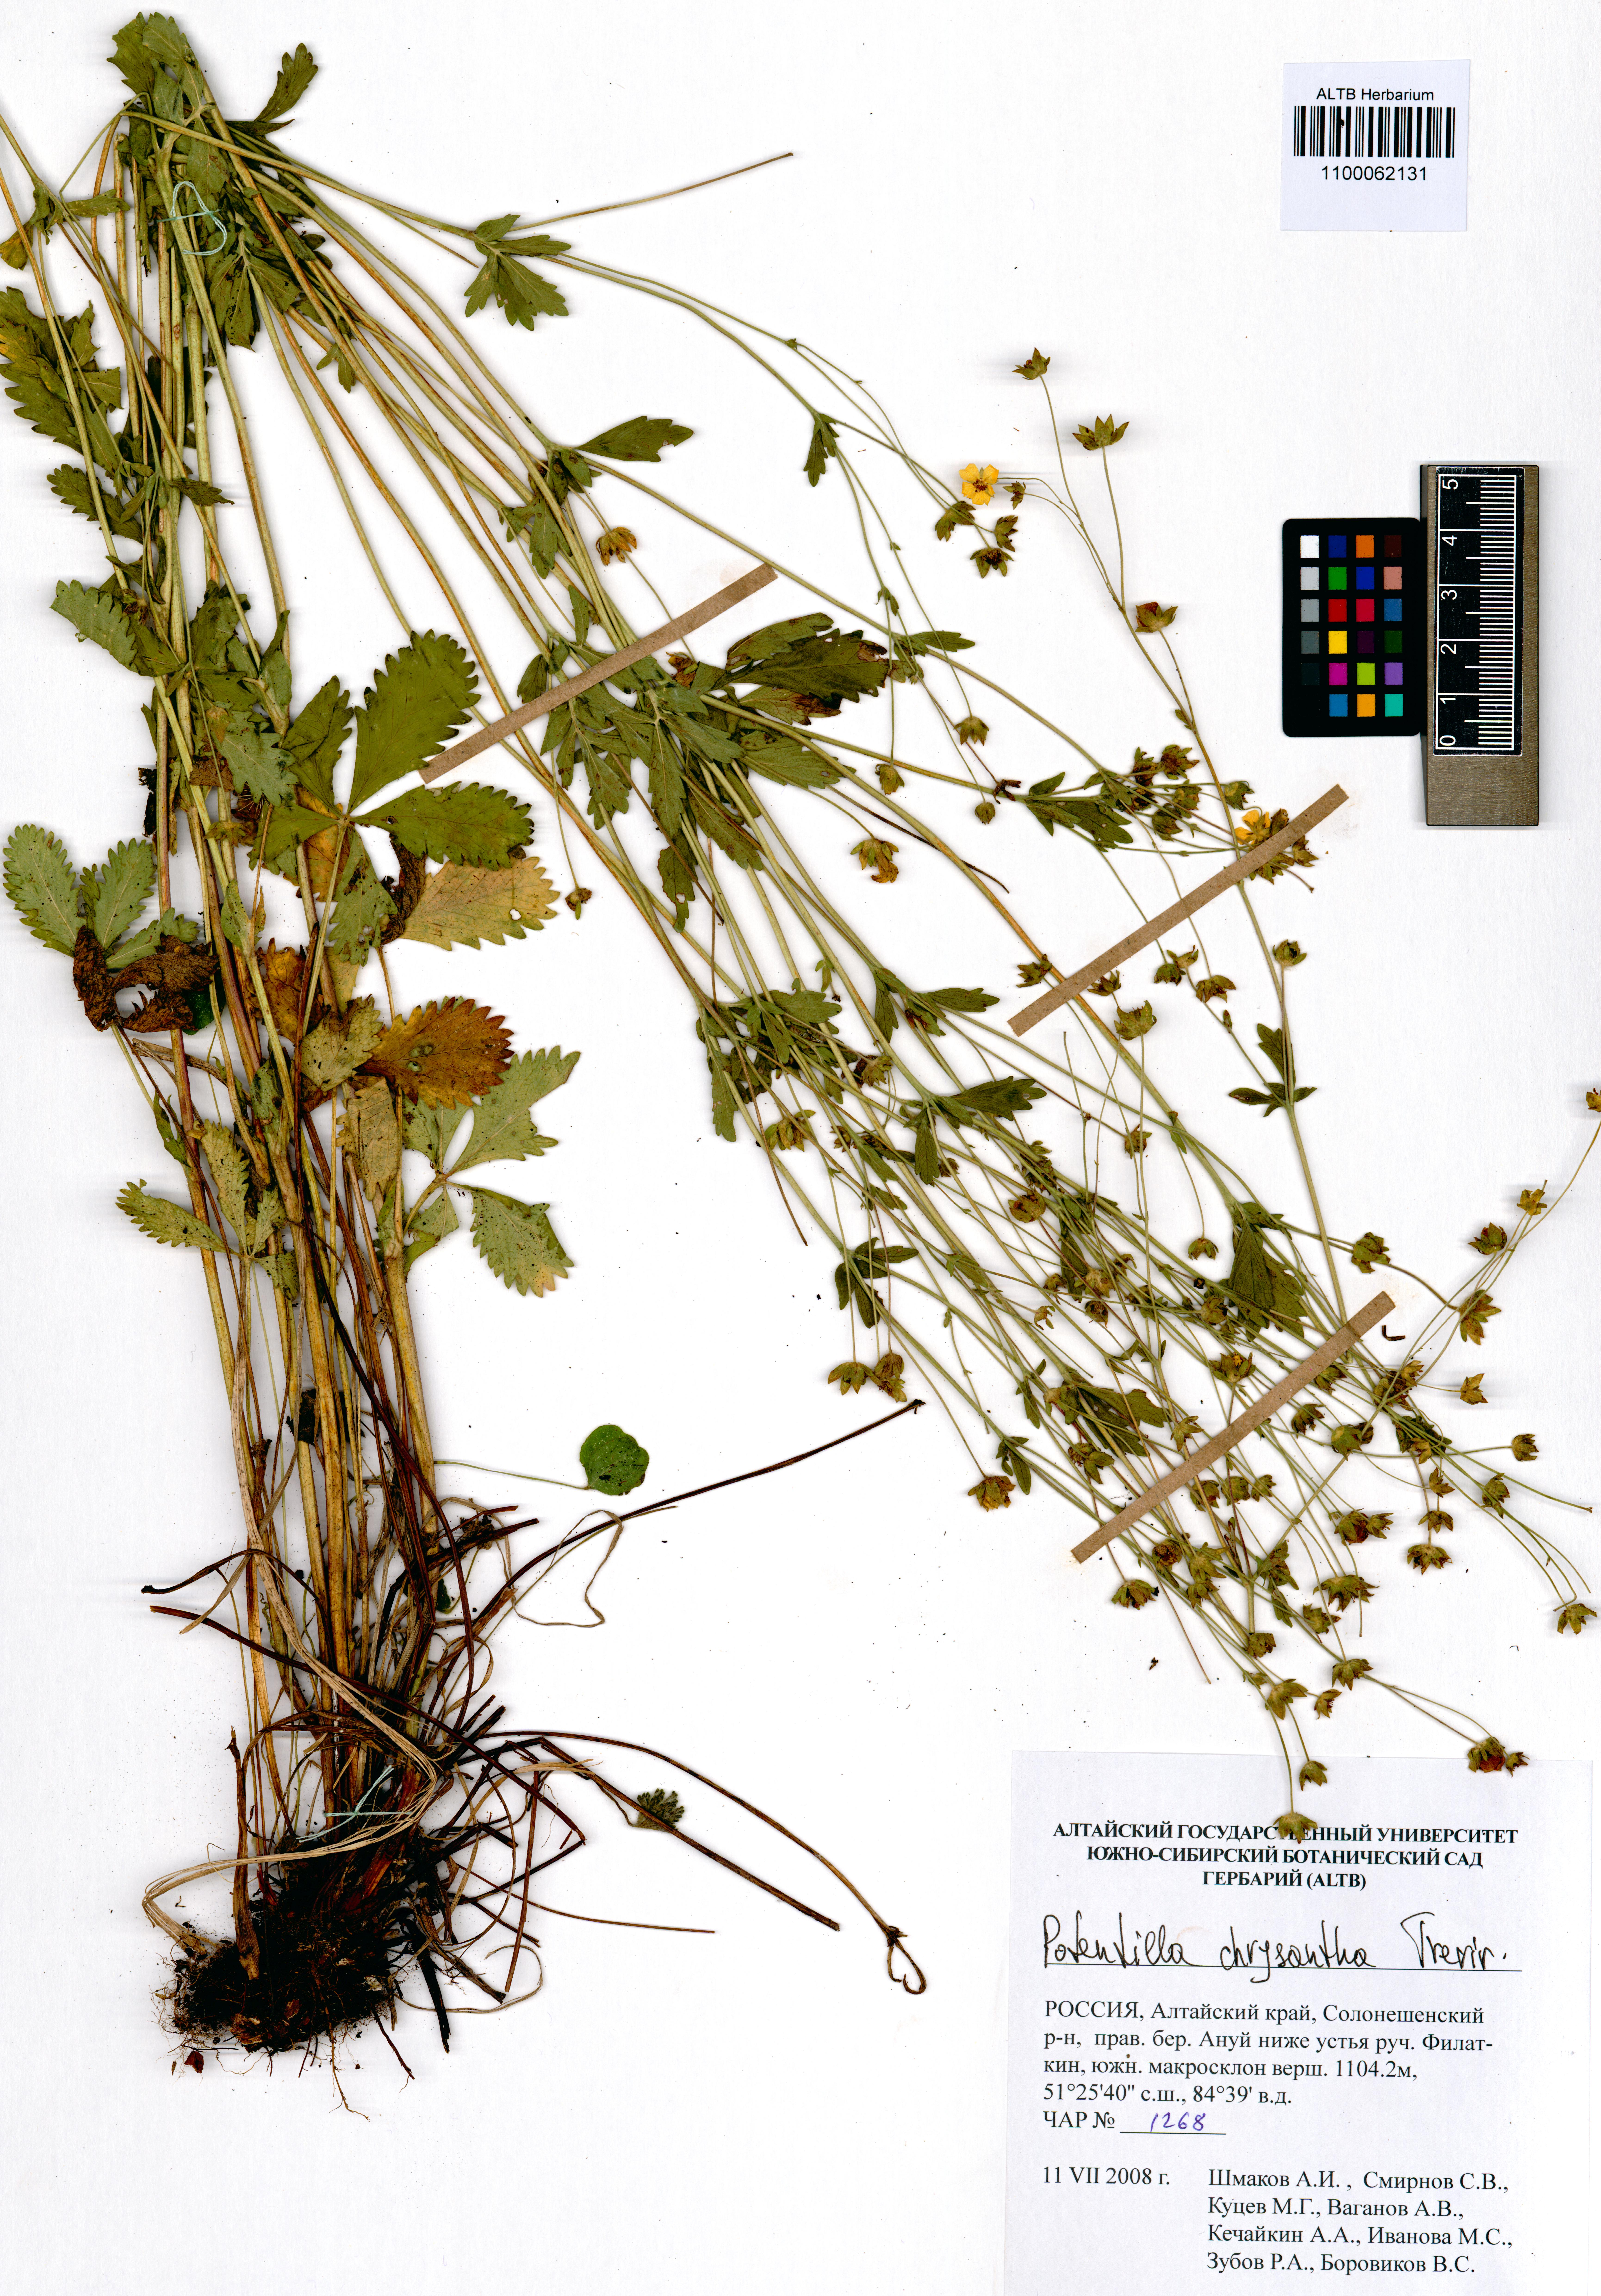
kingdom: Plantae
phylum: Tracheophyta
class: Magnoliopsida
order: Rosales
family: Rosaceae
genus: Potentilla
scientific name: Potentilla chrysantha
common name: Thuringian cinquefoil
